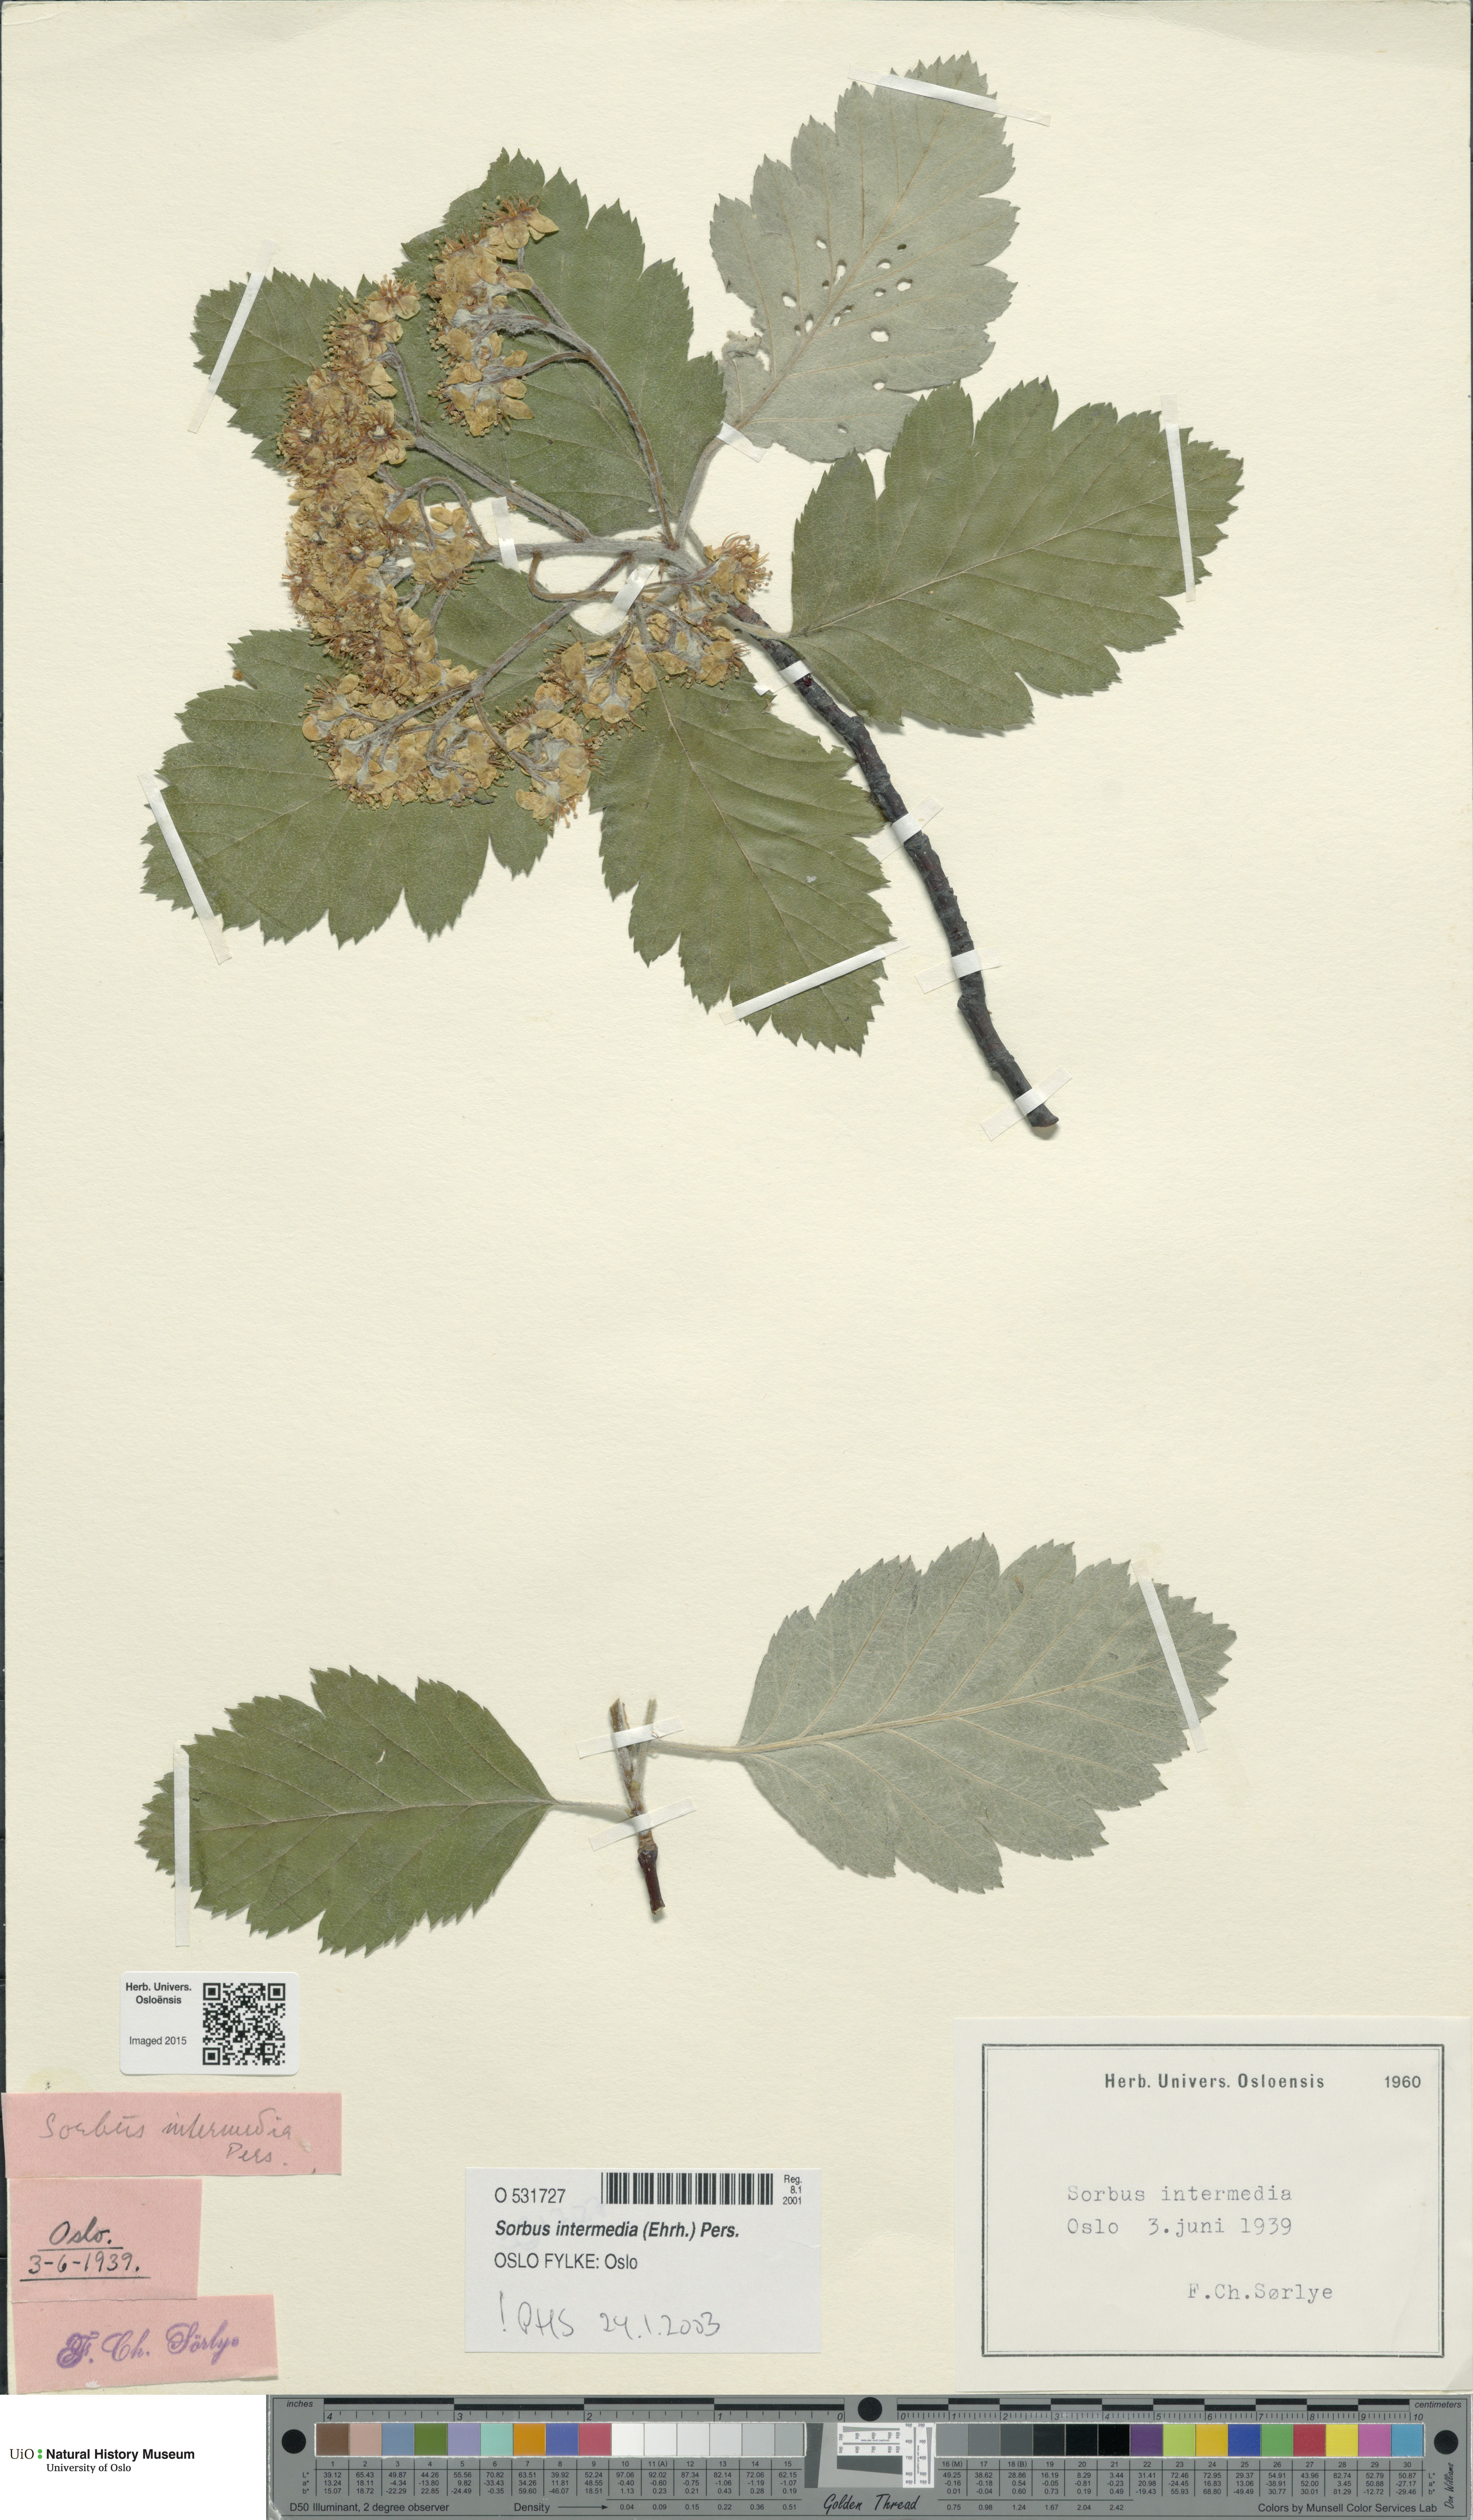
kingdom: Plantae
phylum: Tracheophyta
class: Magnoliopsida
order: Rosales
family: Rosaceae
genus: Scandosorbus
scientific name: Scandosorbus intermedia
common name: Swedish whitebeam
